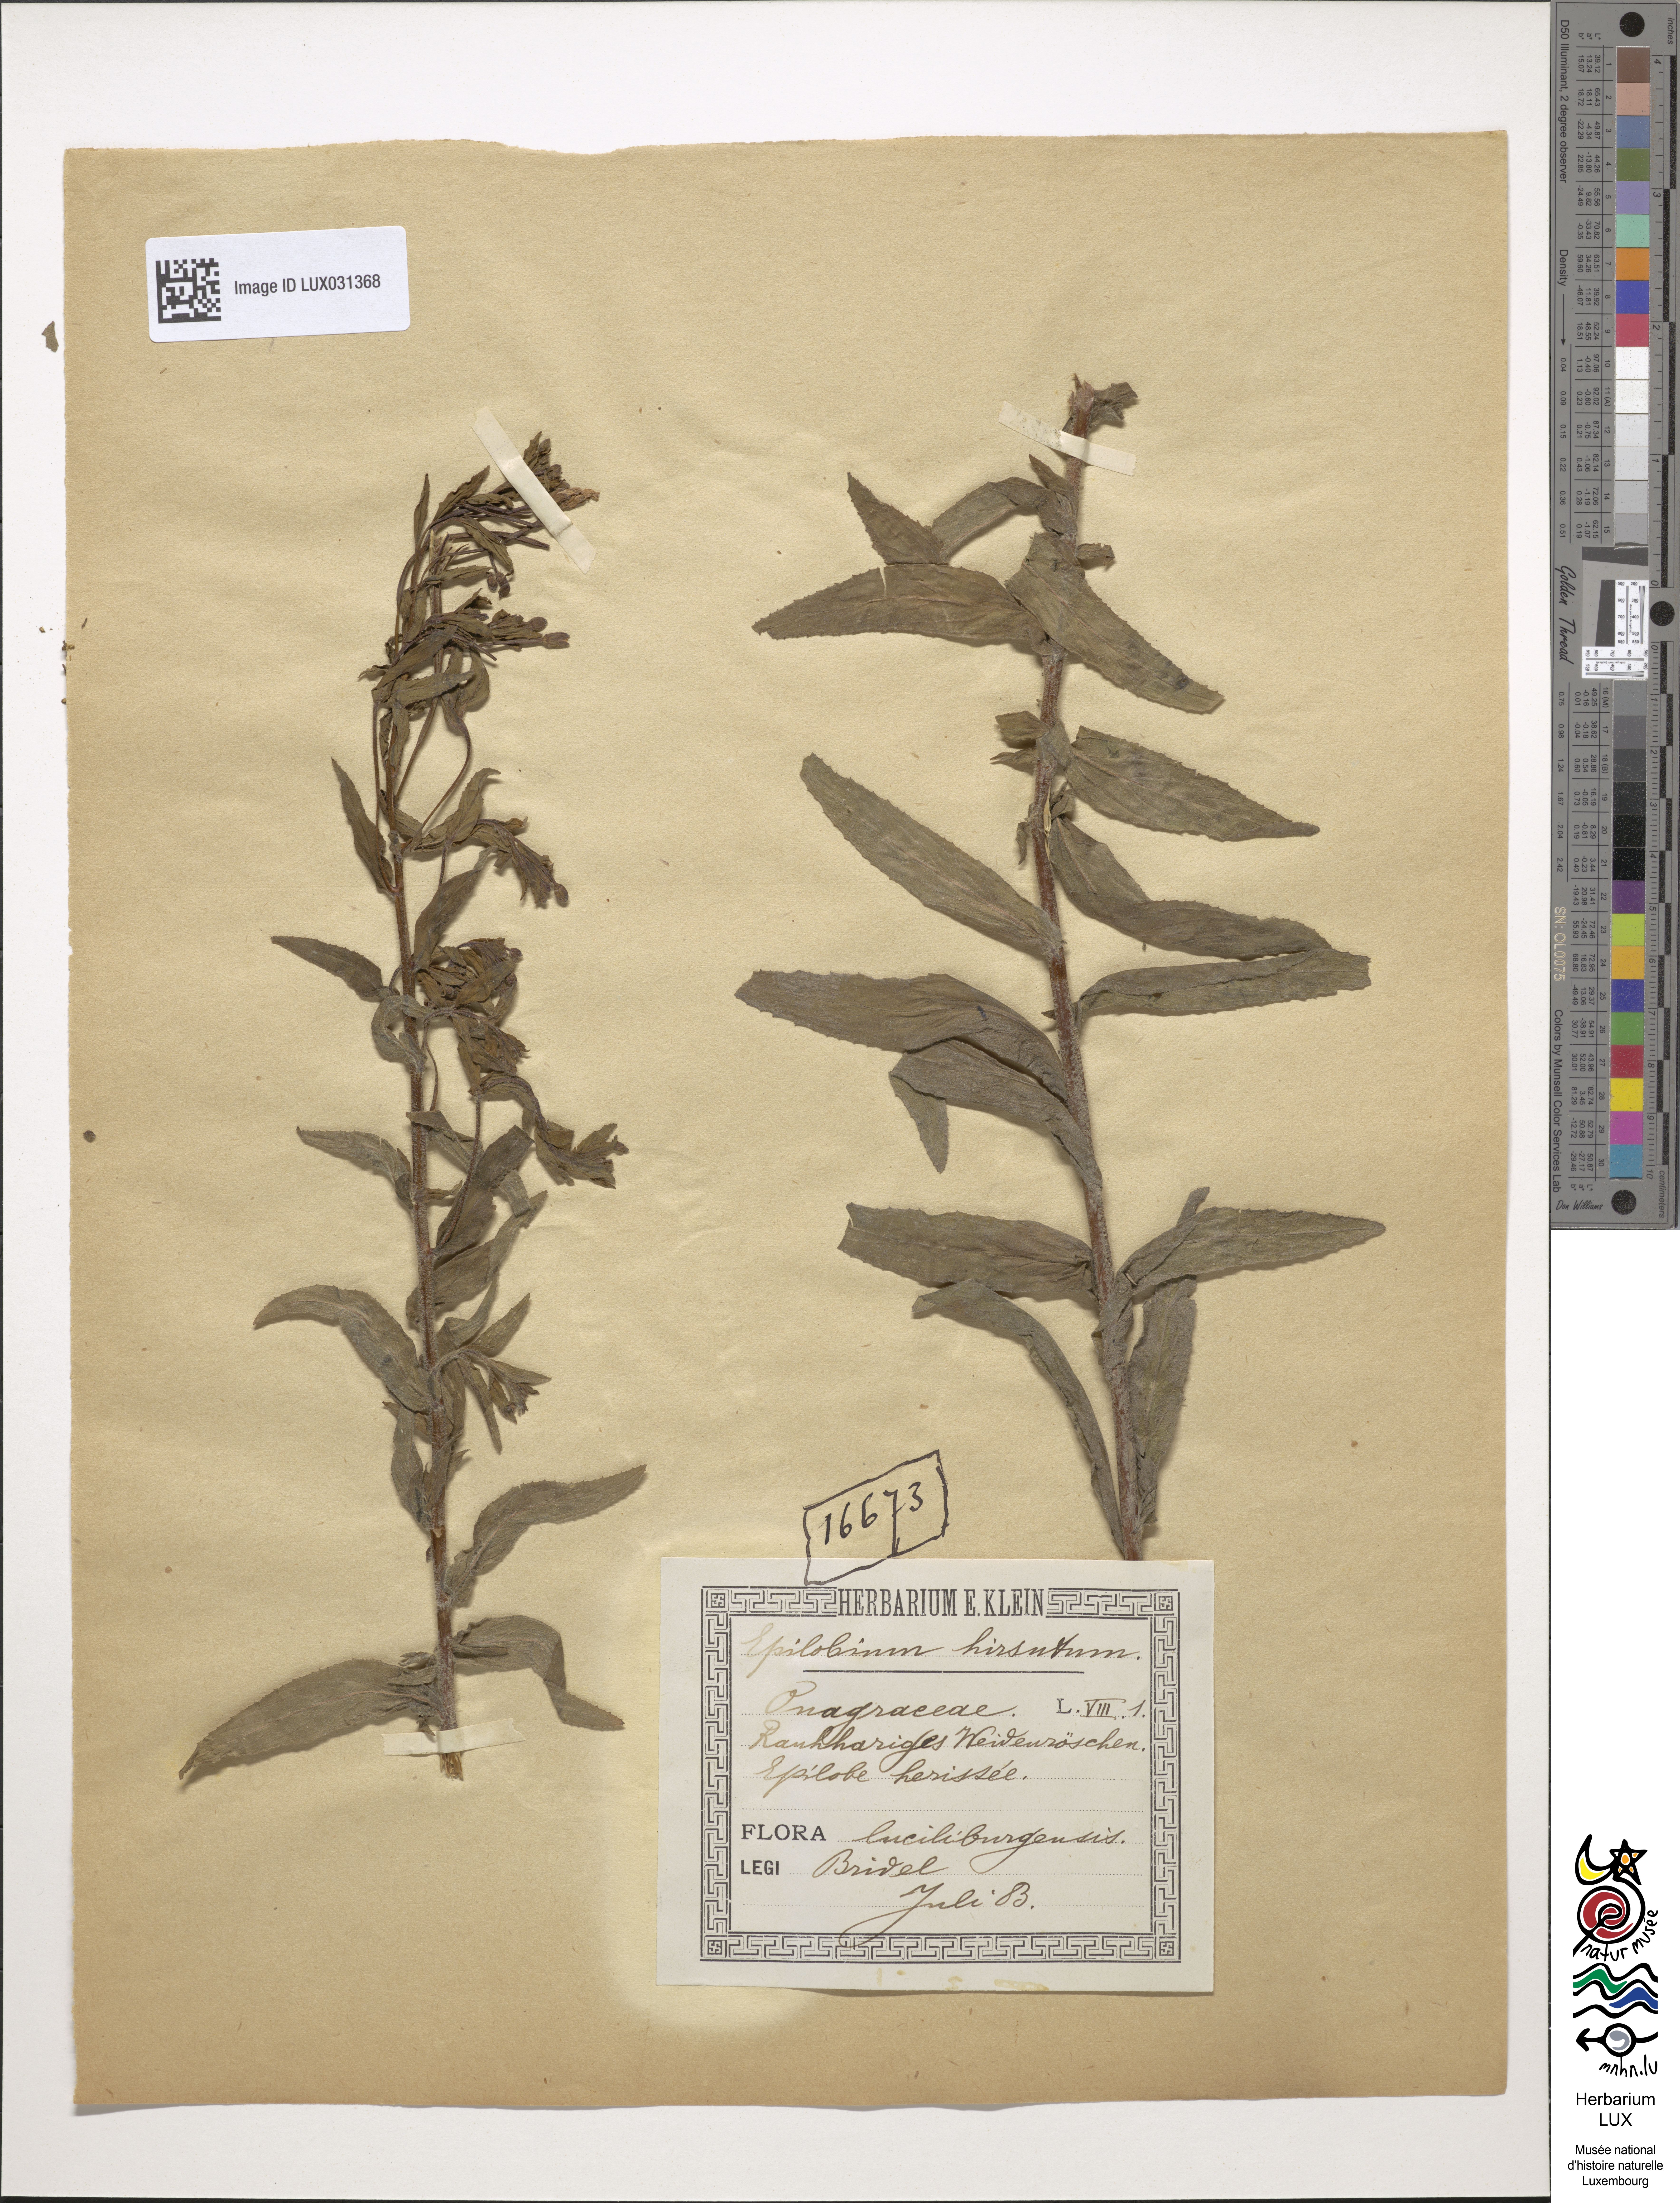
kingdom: Plantae
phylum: Tracheophyta
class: Magnoliopsida
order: Myrtales
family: Onagraceae
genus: Epilobium
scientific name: Epilobium hirsutum
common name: Great willowherb
